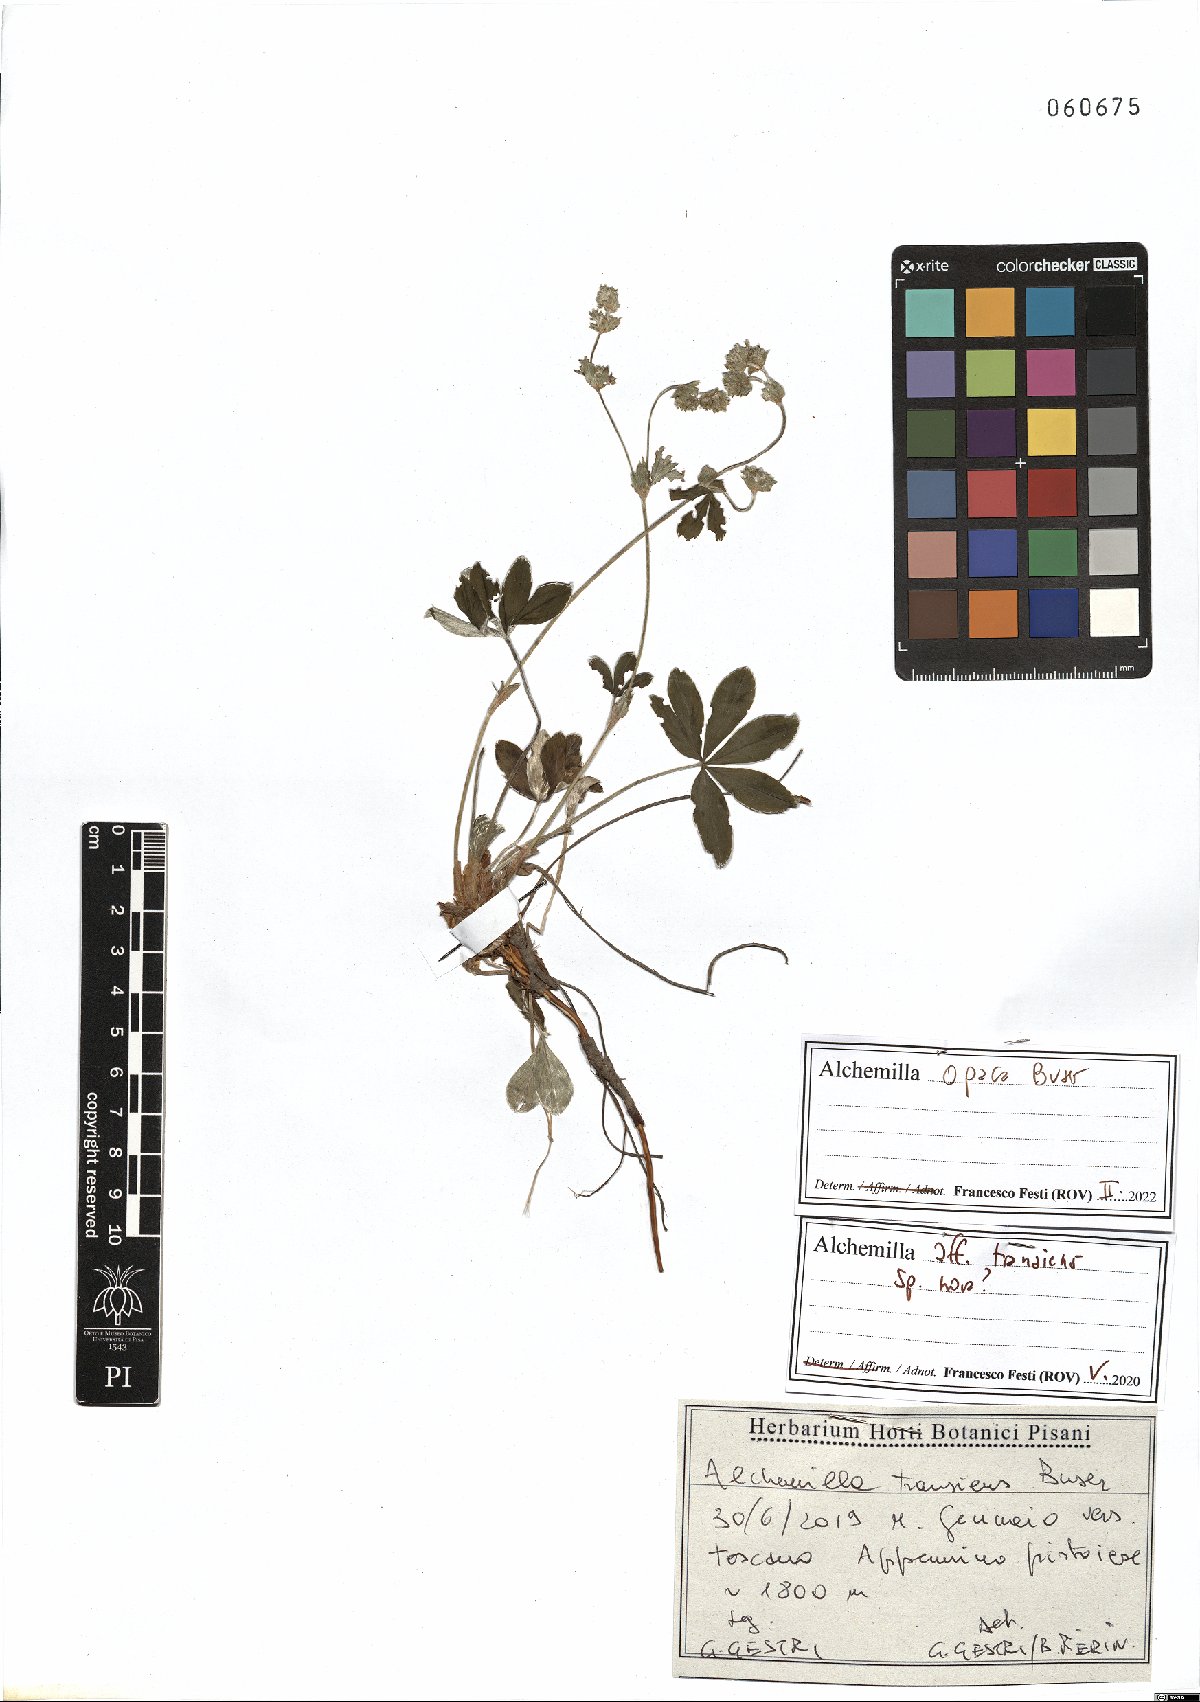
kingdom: Plantae
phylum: Tracheophyta
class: Magnoliopsida
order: Rosales
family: Rosaceae
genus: Alchemilla
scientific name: Alchemilla opaca
